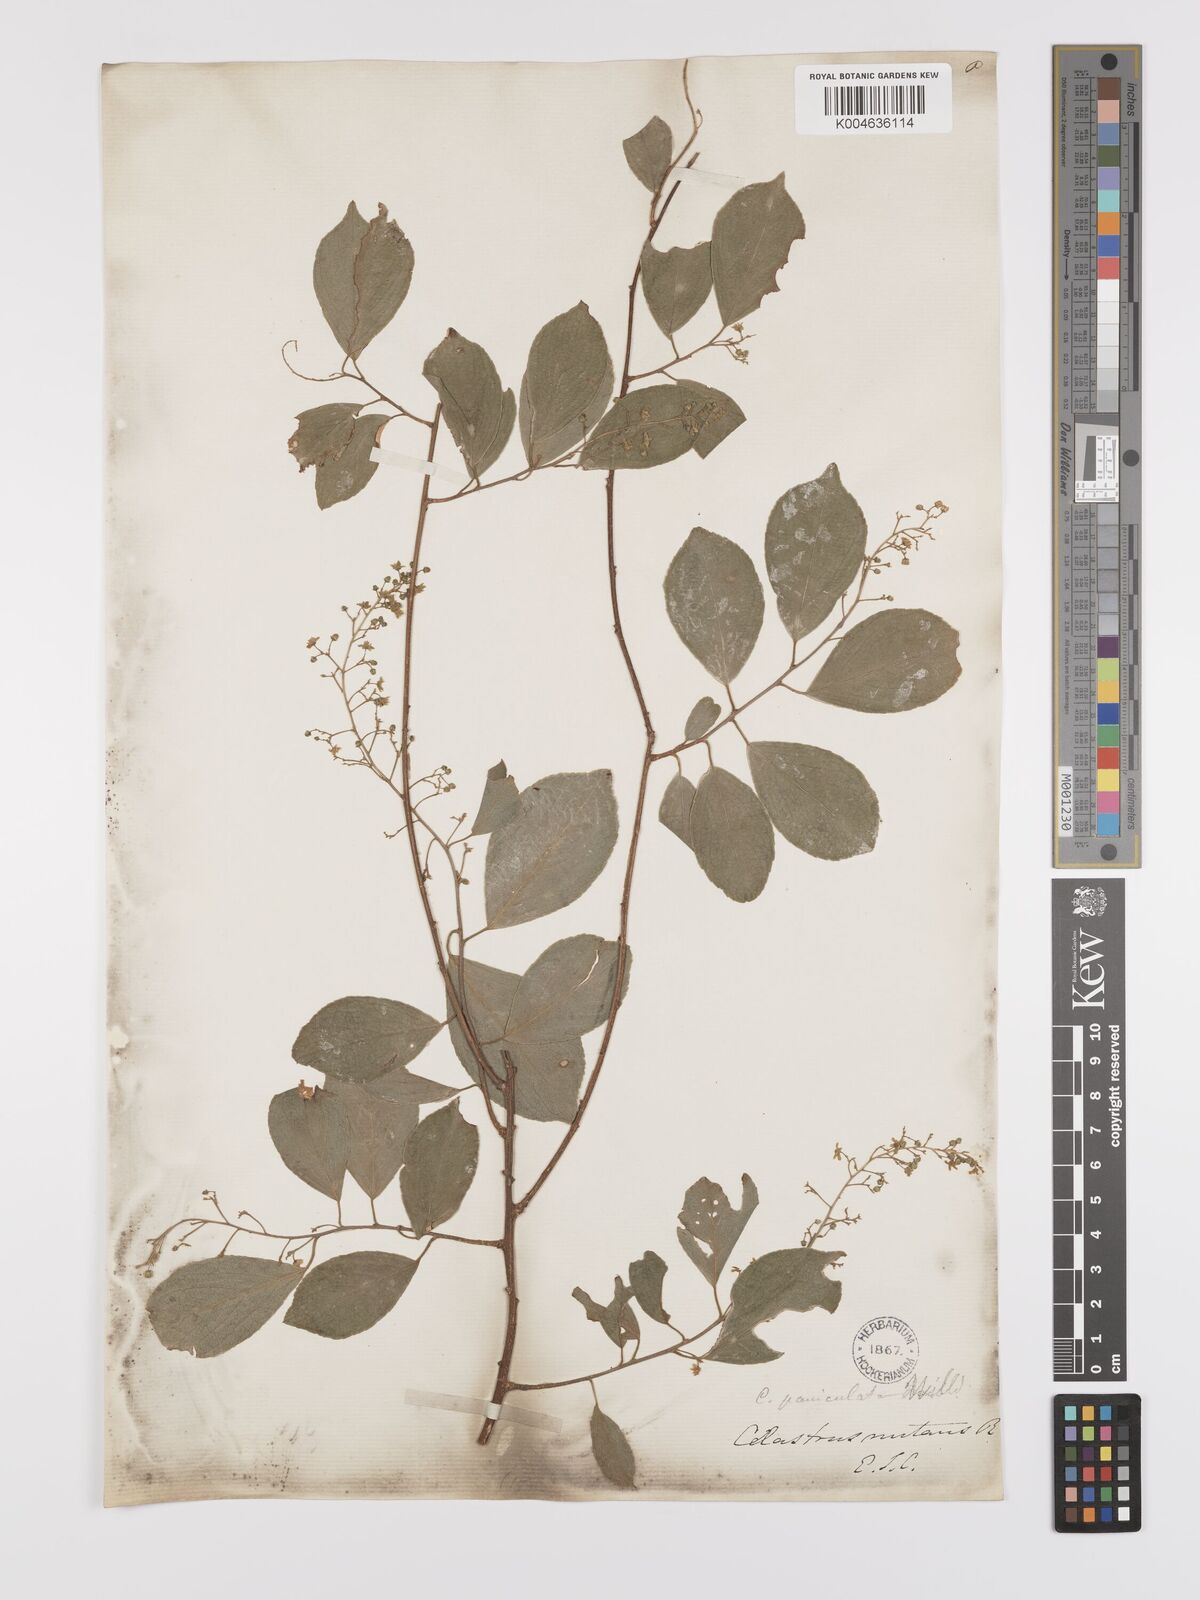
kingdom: Plantae
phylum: Tracheophyta
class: Magnoliopsida
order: Celastrales
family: Celastraceae
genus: Celastrus
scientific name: Celastrus
